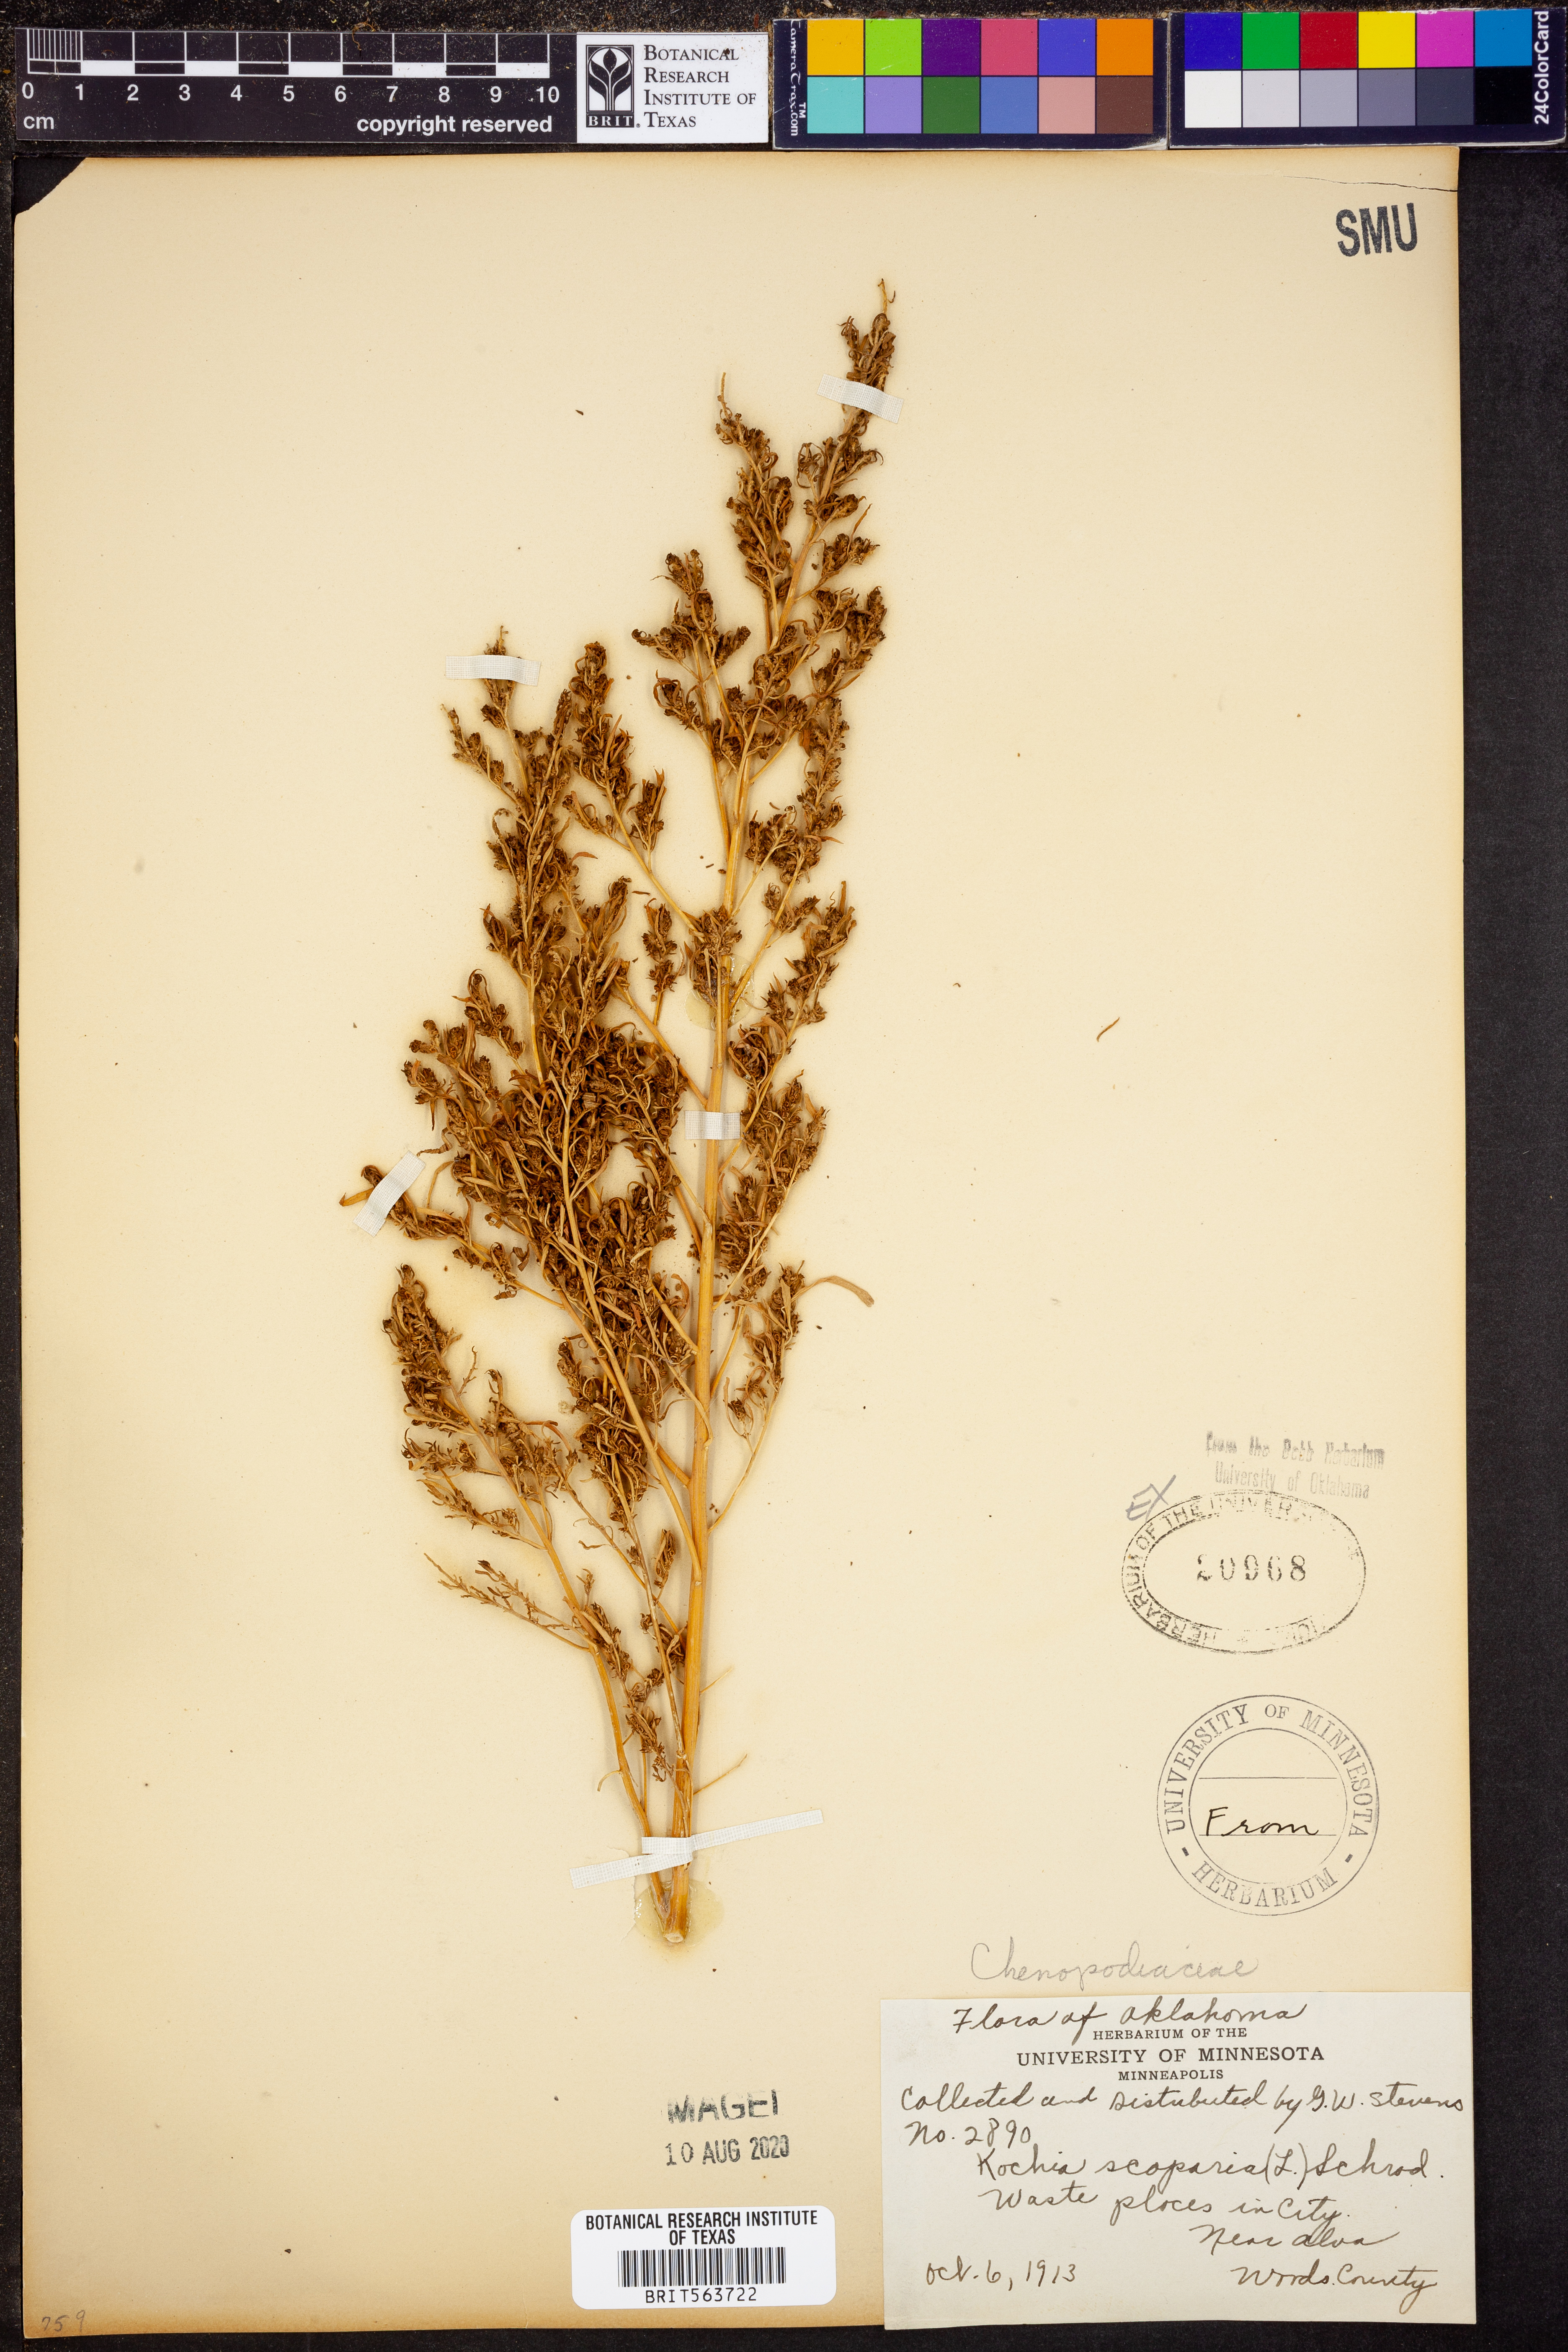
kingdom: Plantae
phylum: Tracheophyta
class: Magnoliopsida
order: Caryophyllales
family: Amaranthaceae
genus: Bassia
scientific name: Bassia scoparia
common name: Belvedere
